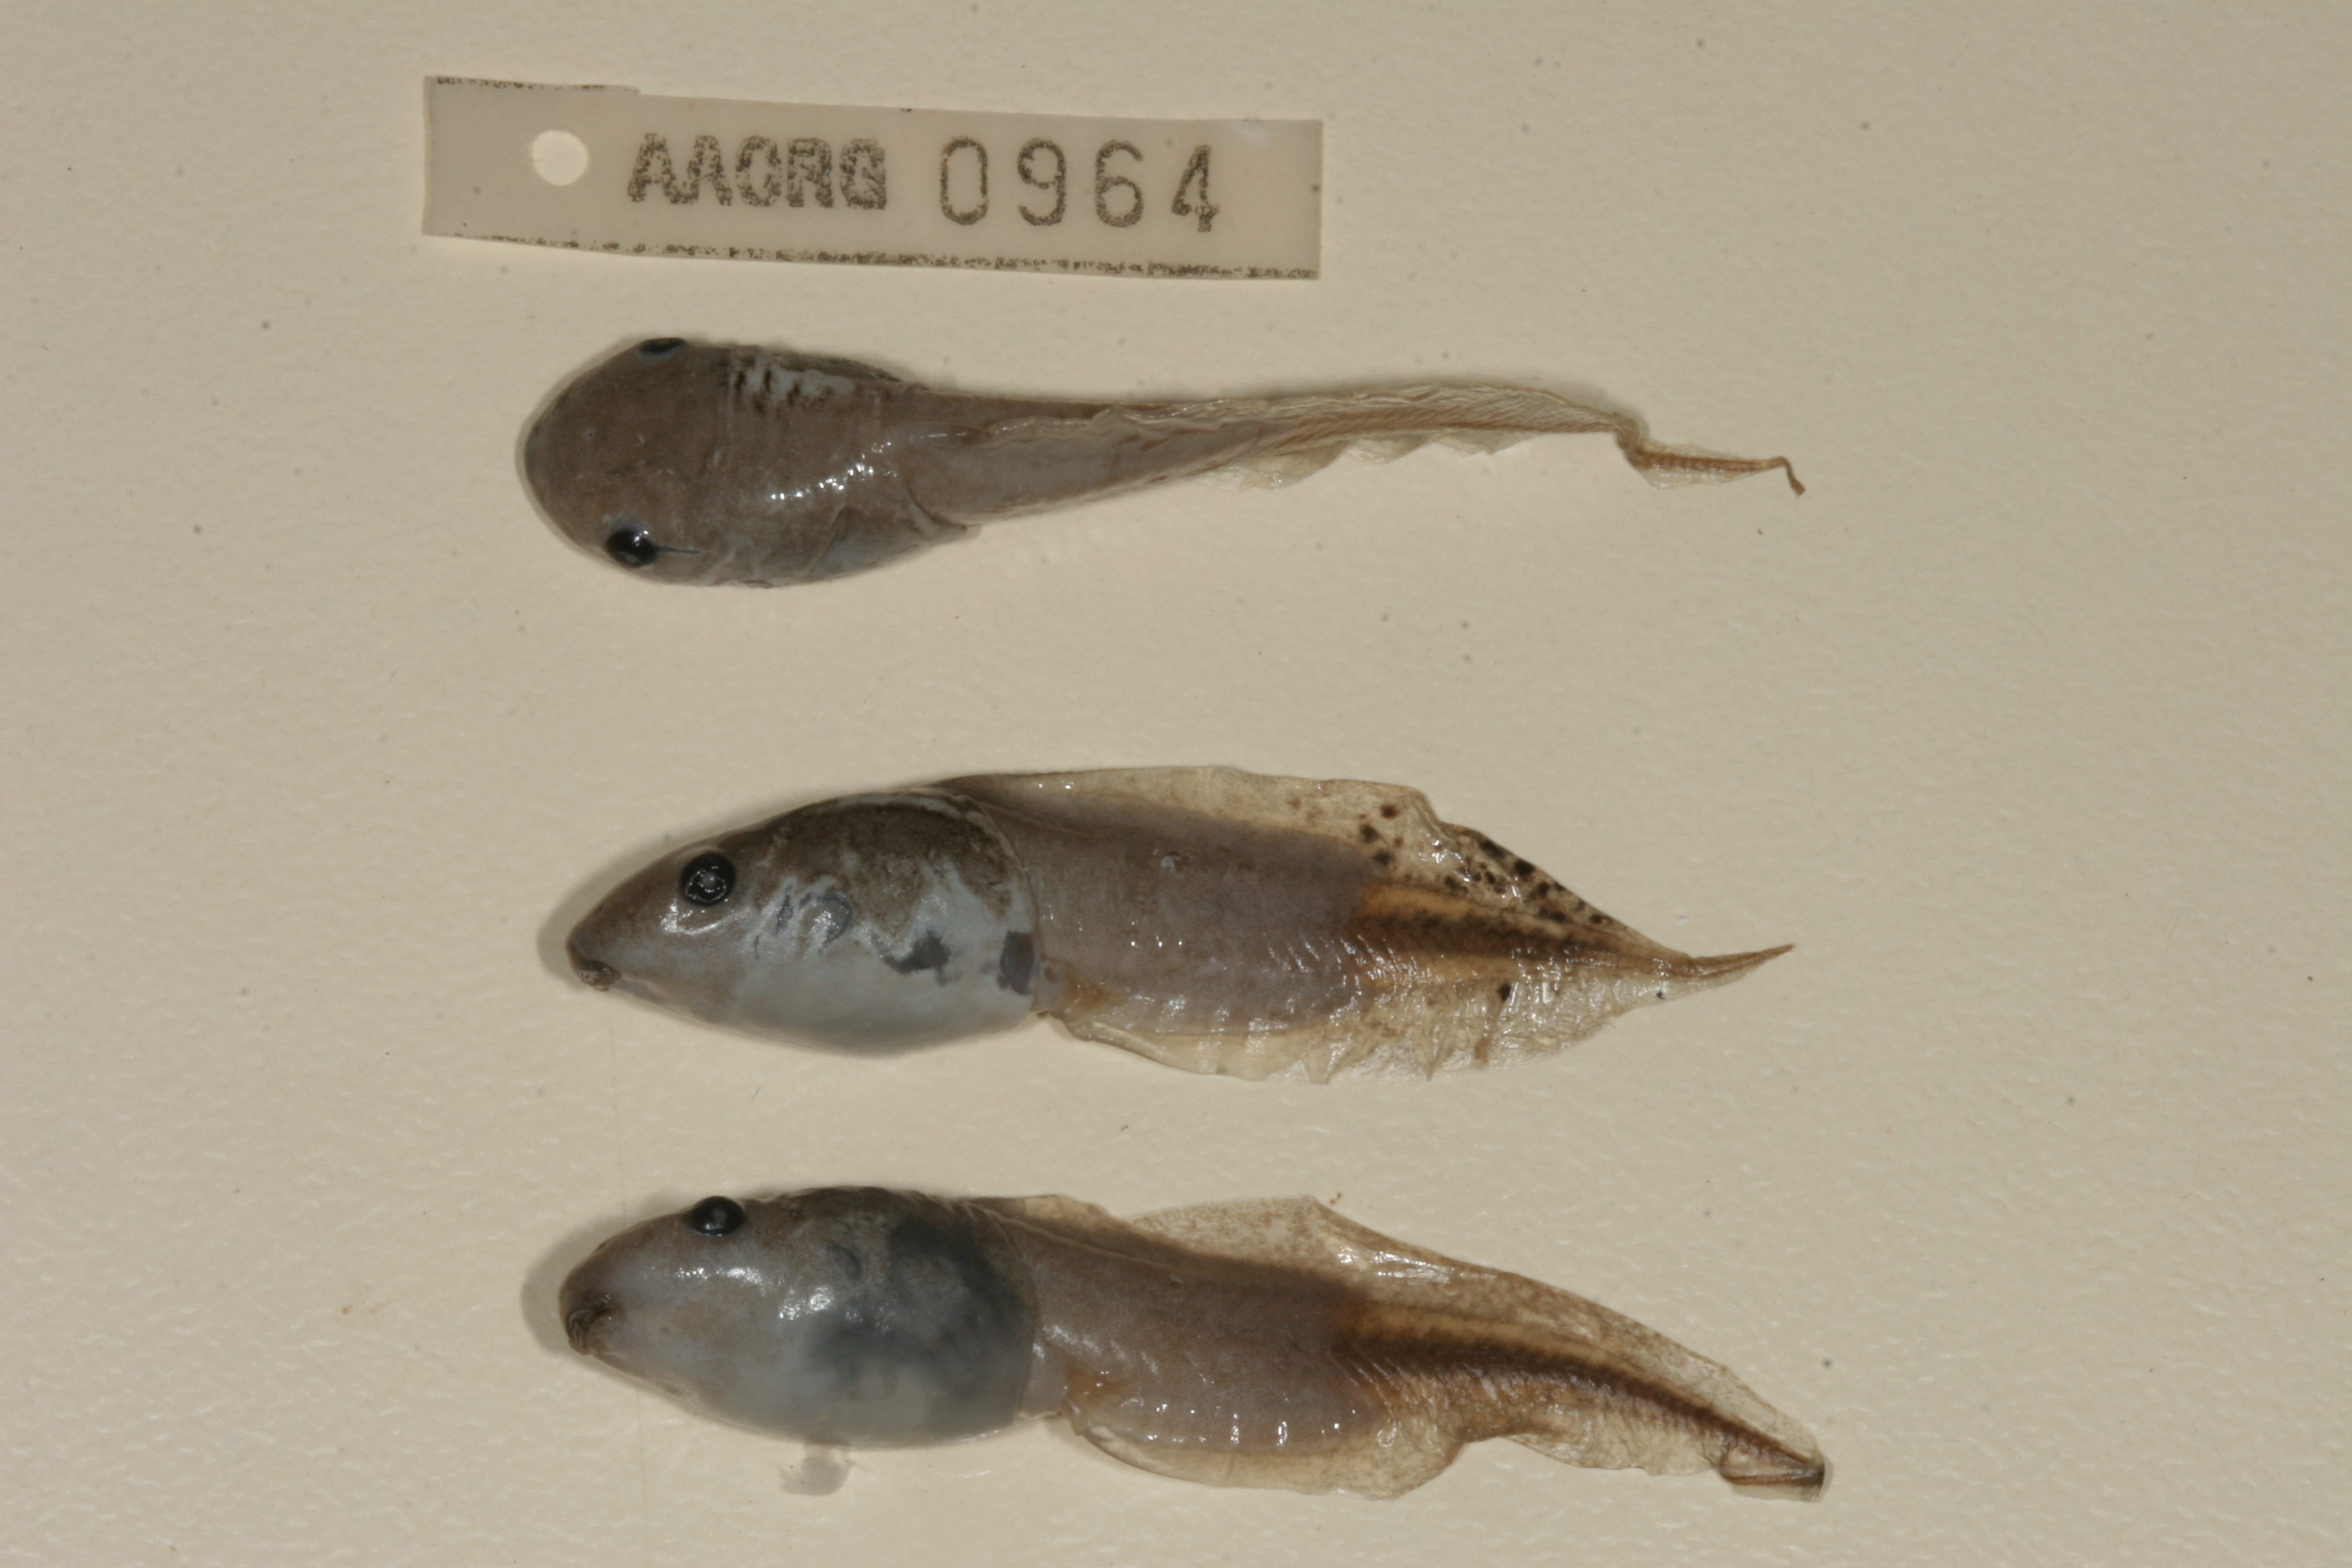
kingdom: Animalia
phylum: Chordata
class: Amphibia
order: Anura
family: Hemisotidae
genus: Hemisus
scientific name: Hemisus marmoratus
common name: Mottled shovel-nosed frog
